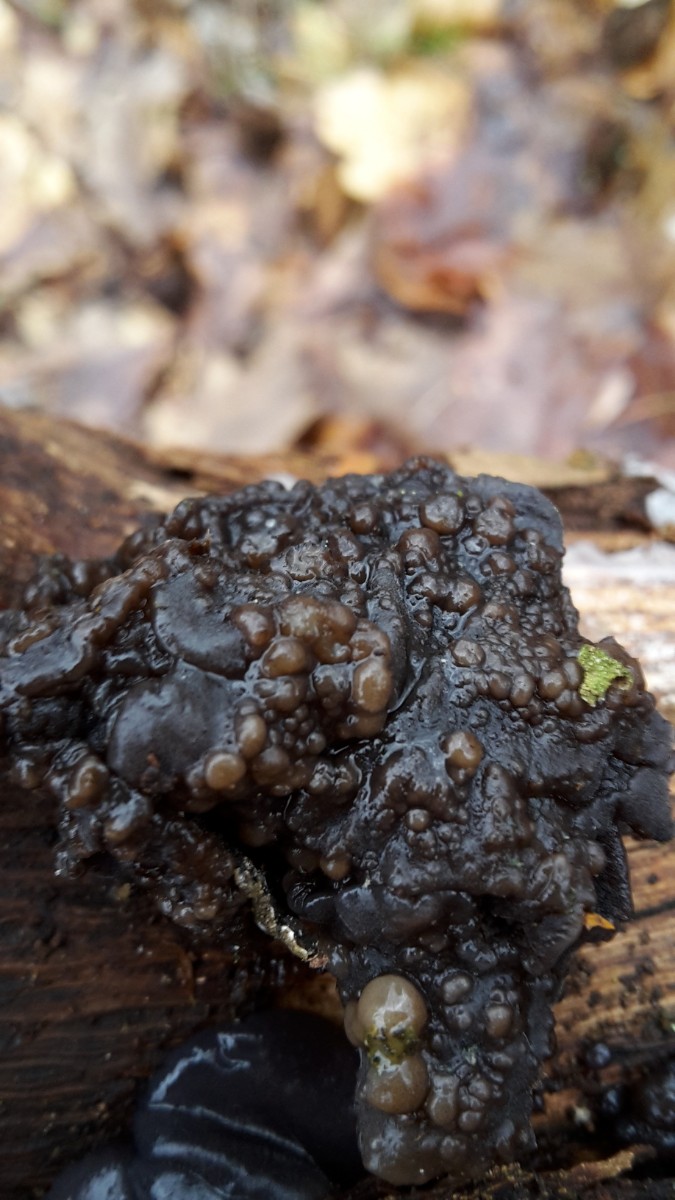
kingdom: Fungi
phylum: Basidiomycota
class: Tremellomycetes
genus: Heteromycophaga
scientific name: Heteromycophaga glandulosae
